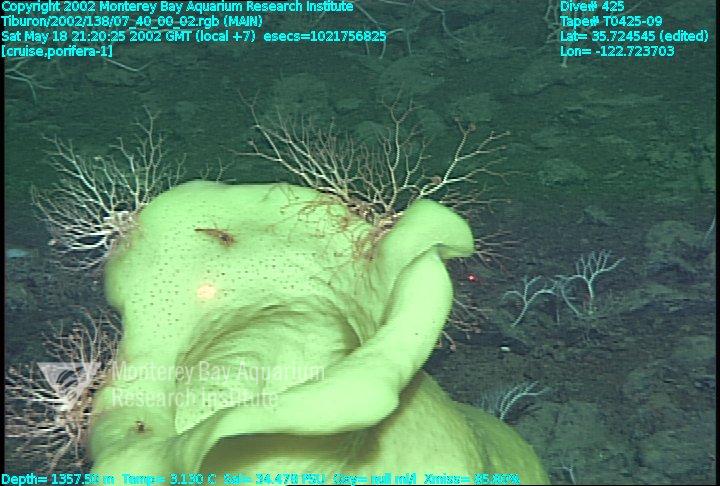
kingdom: Animalia
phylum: Porifera
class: Hexactinellida
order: Lyssacinosida
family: Rossellidae
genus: Staurocalyptus
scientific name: Staurocalyptus
